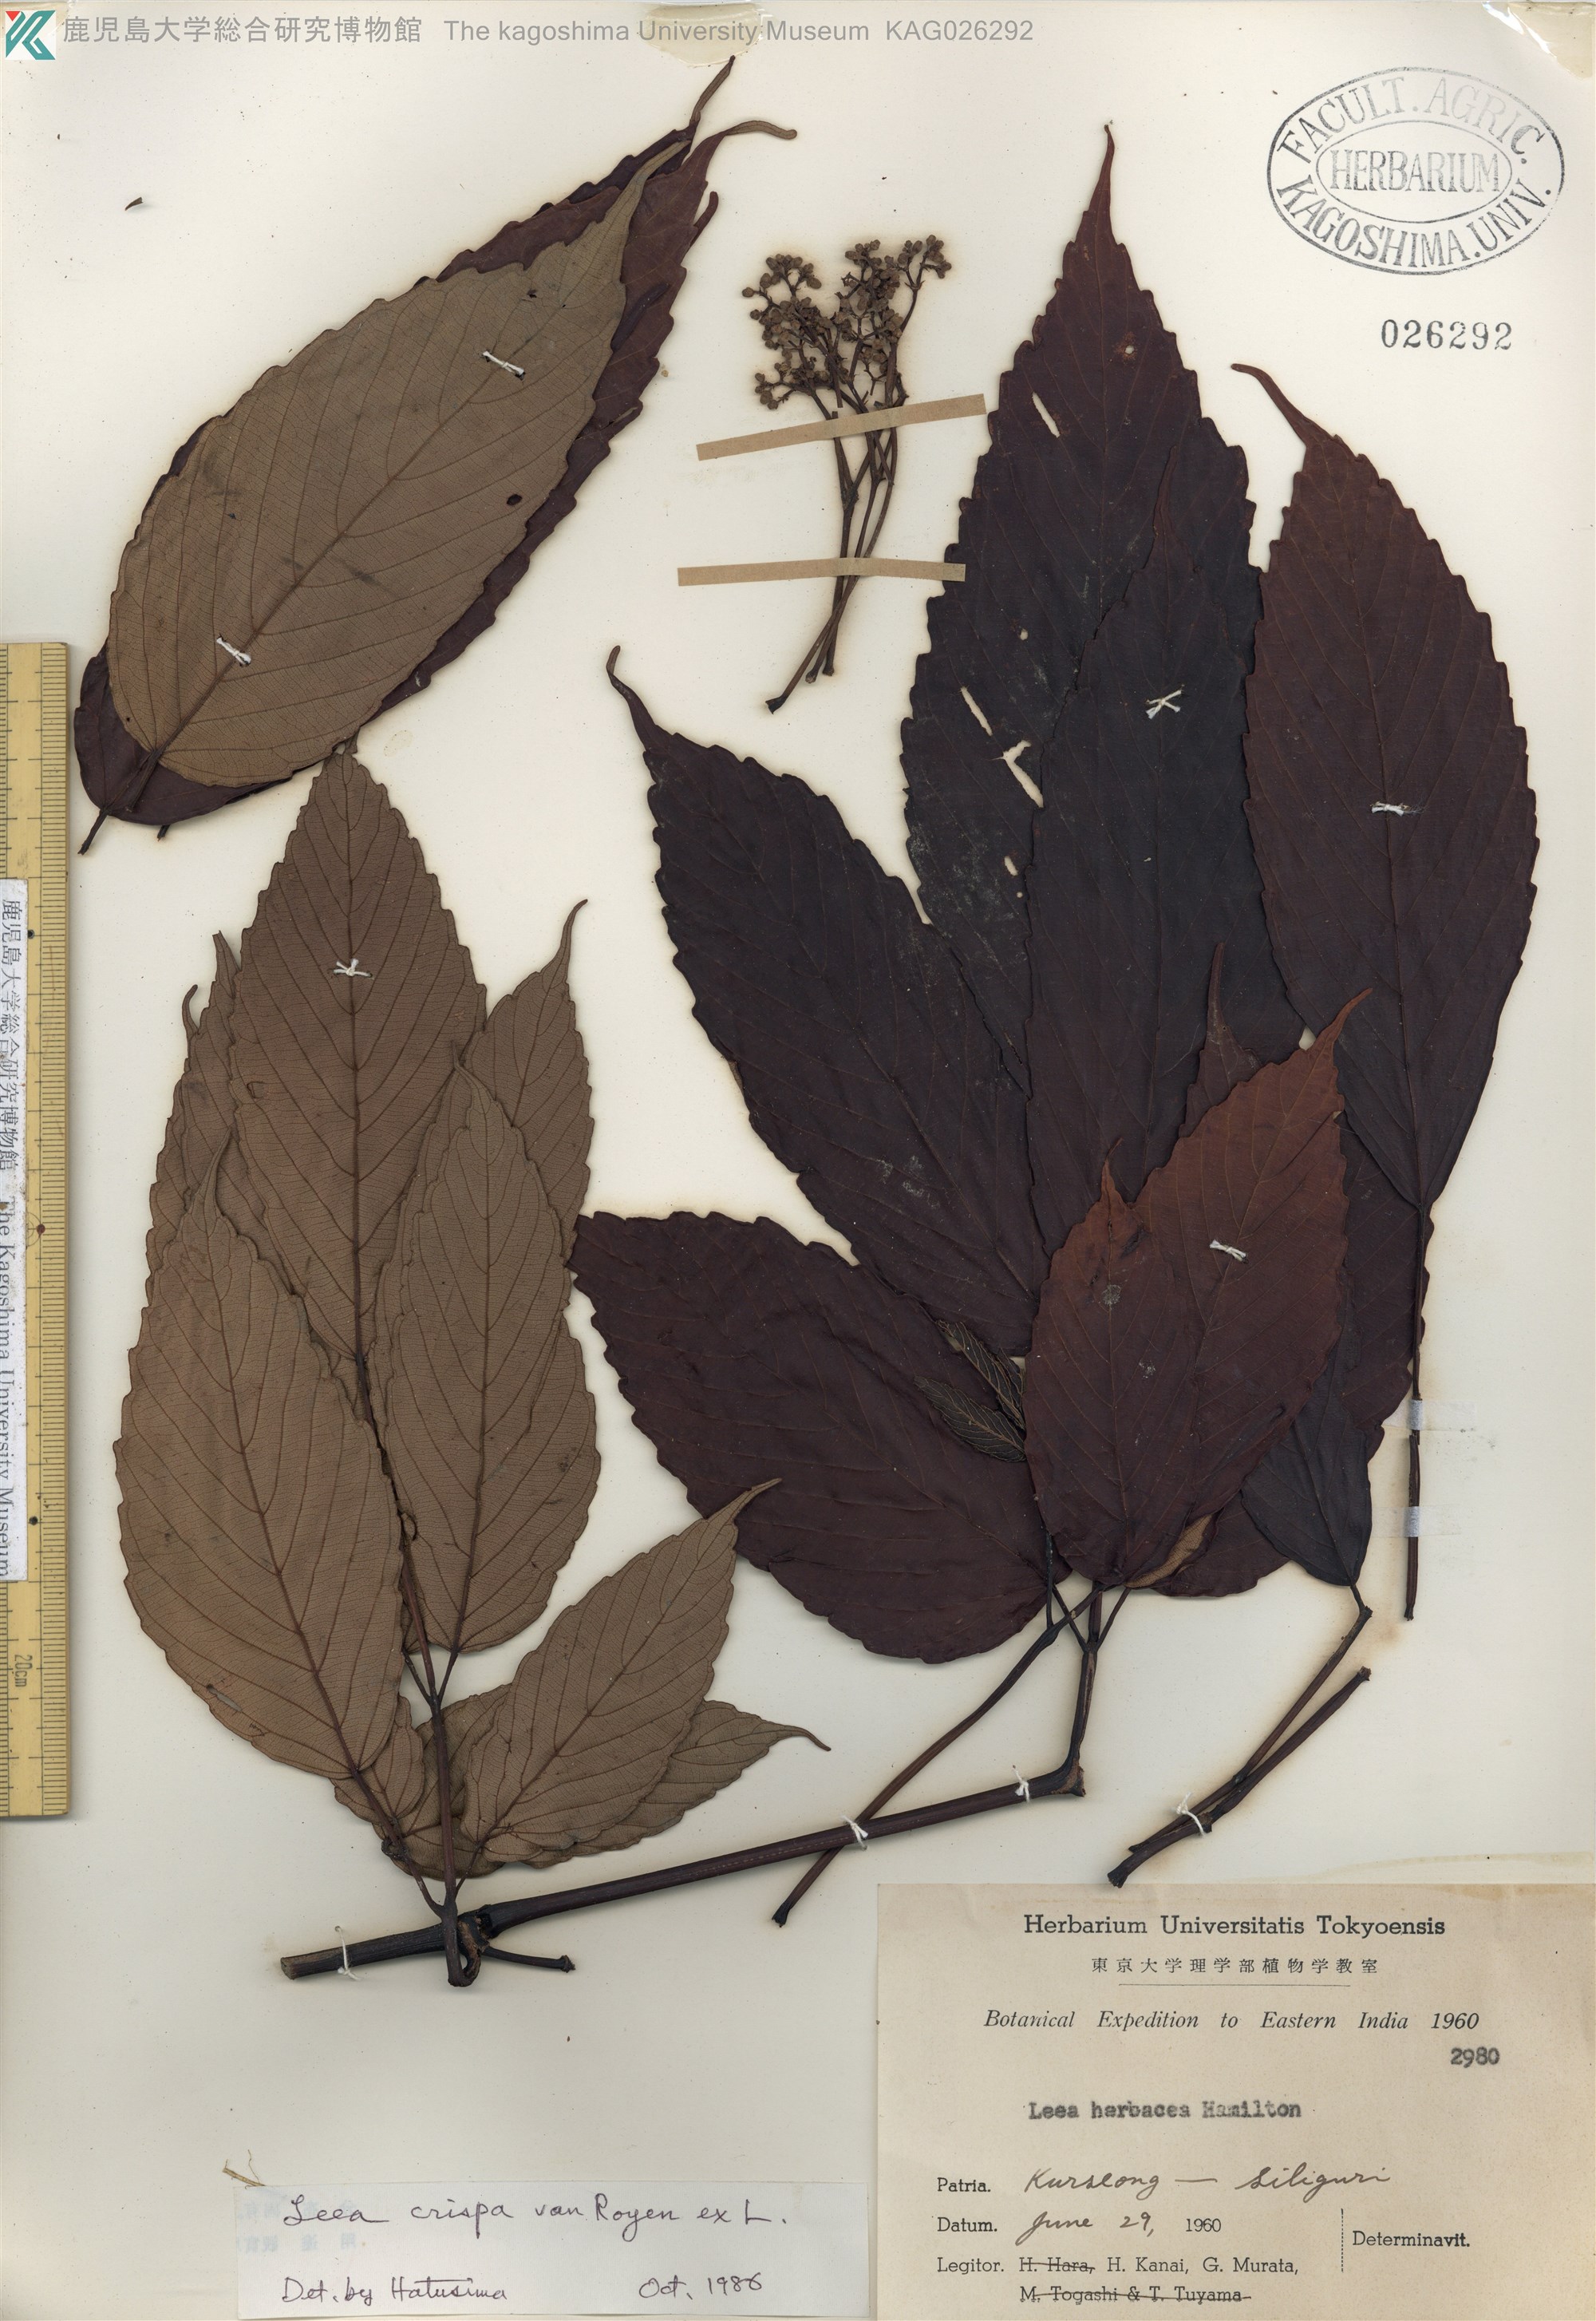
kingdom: Plantae
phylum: Tracheophyta
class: Magnoliopsida
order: Vitales
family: Vitaceae
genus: Leea
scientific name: Leea crispa
